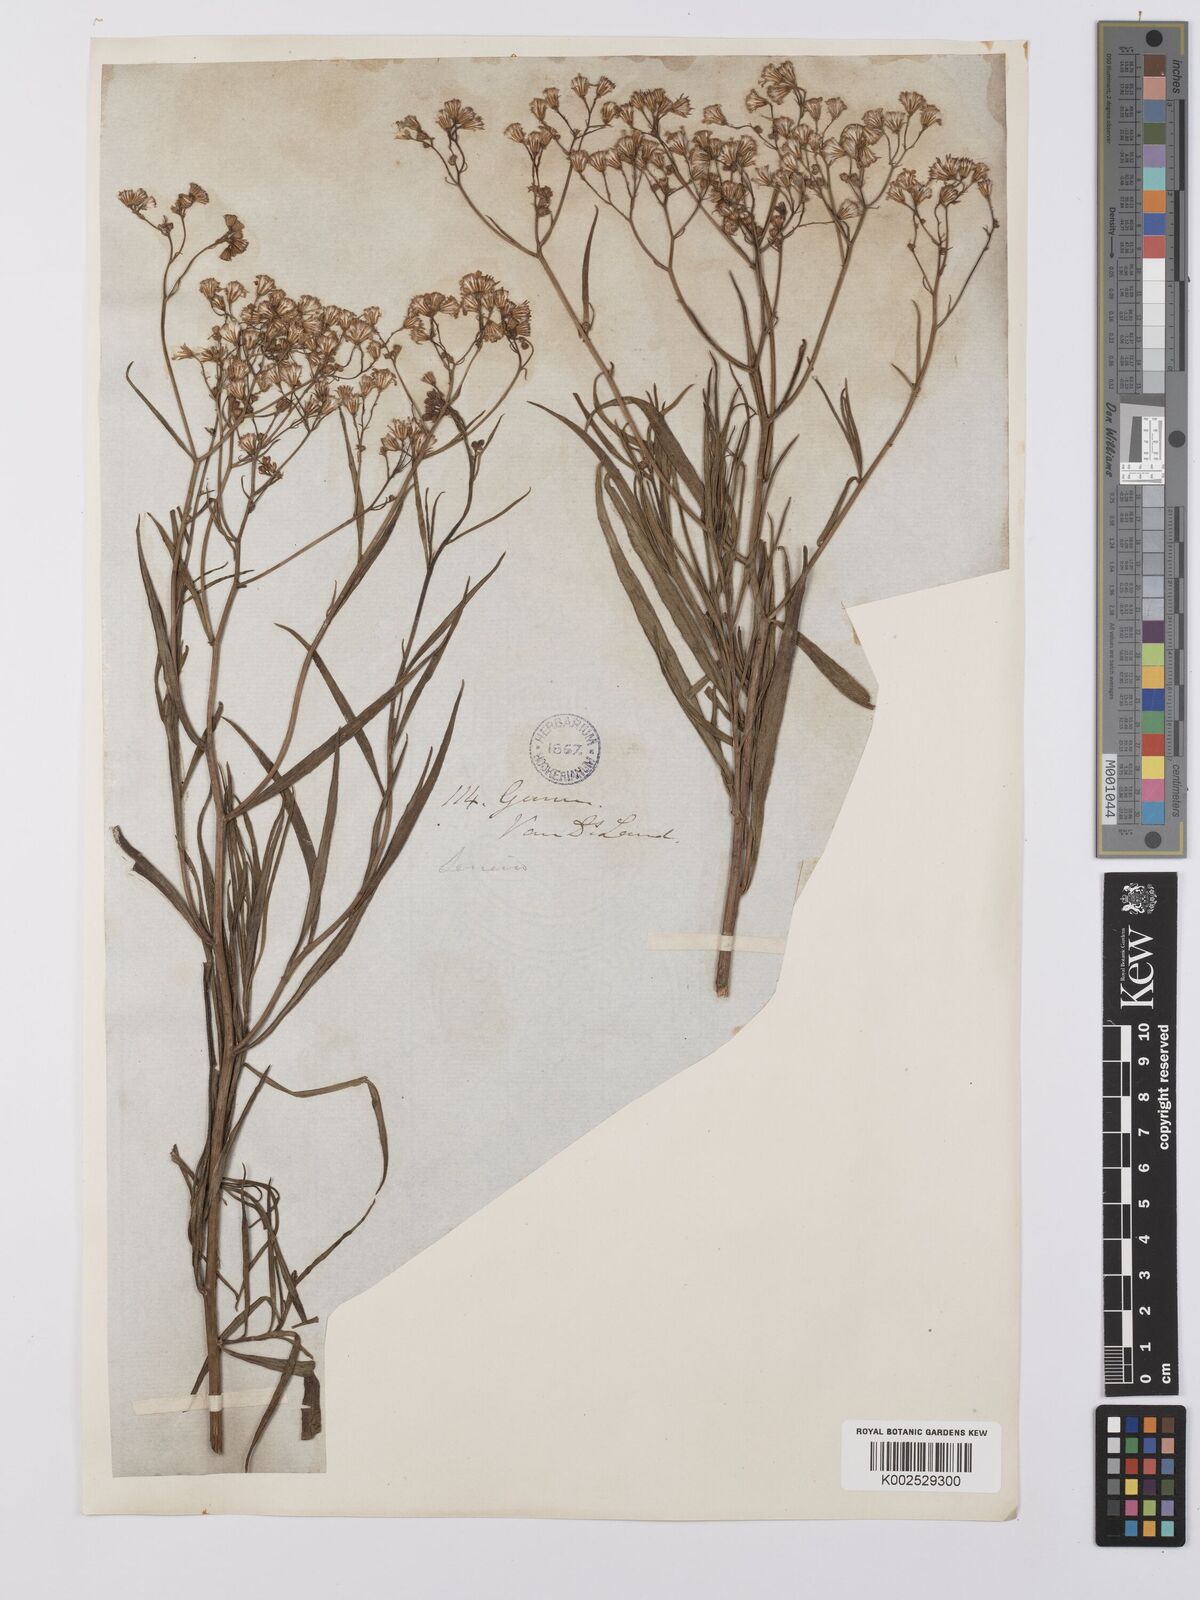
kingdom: Plantae
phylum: Tracheophyta
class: Magnoliopsida
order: Asterales
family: Asteraceae
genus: Senecio
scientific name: Senecio
